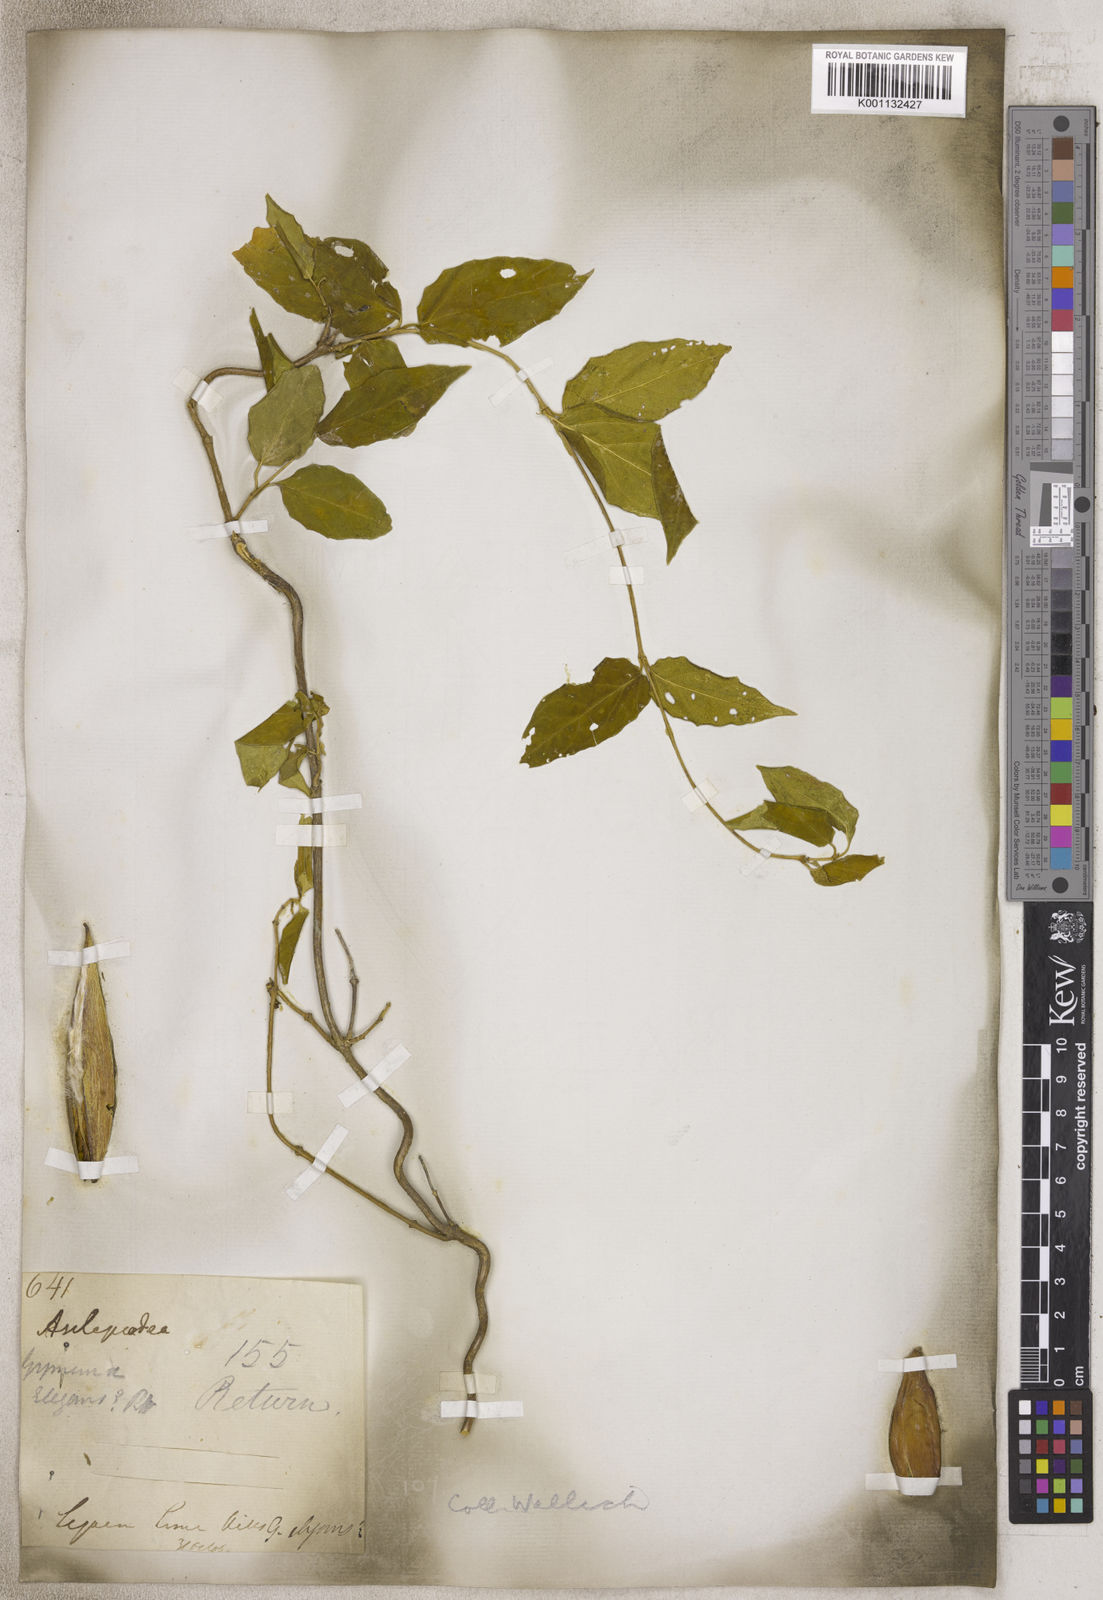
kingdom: Plantae
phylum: Tracheophyta
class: Magnoliopsida
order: Gentianales
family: Asclepiadaceae
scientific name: Asclepiadaceae
